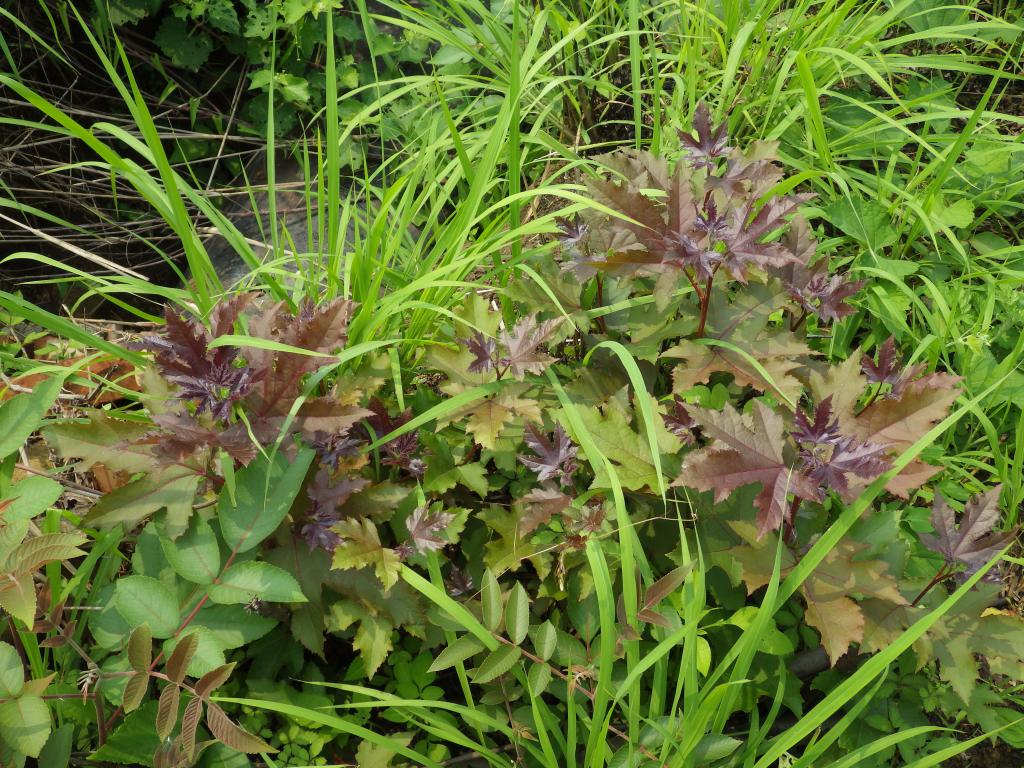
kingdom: Plantae
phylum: Tracheophyta
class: Magnoliopsida
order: Saxifragales
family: Altingiaceae
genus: Liquidambar
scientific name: Liquidambar formosana
